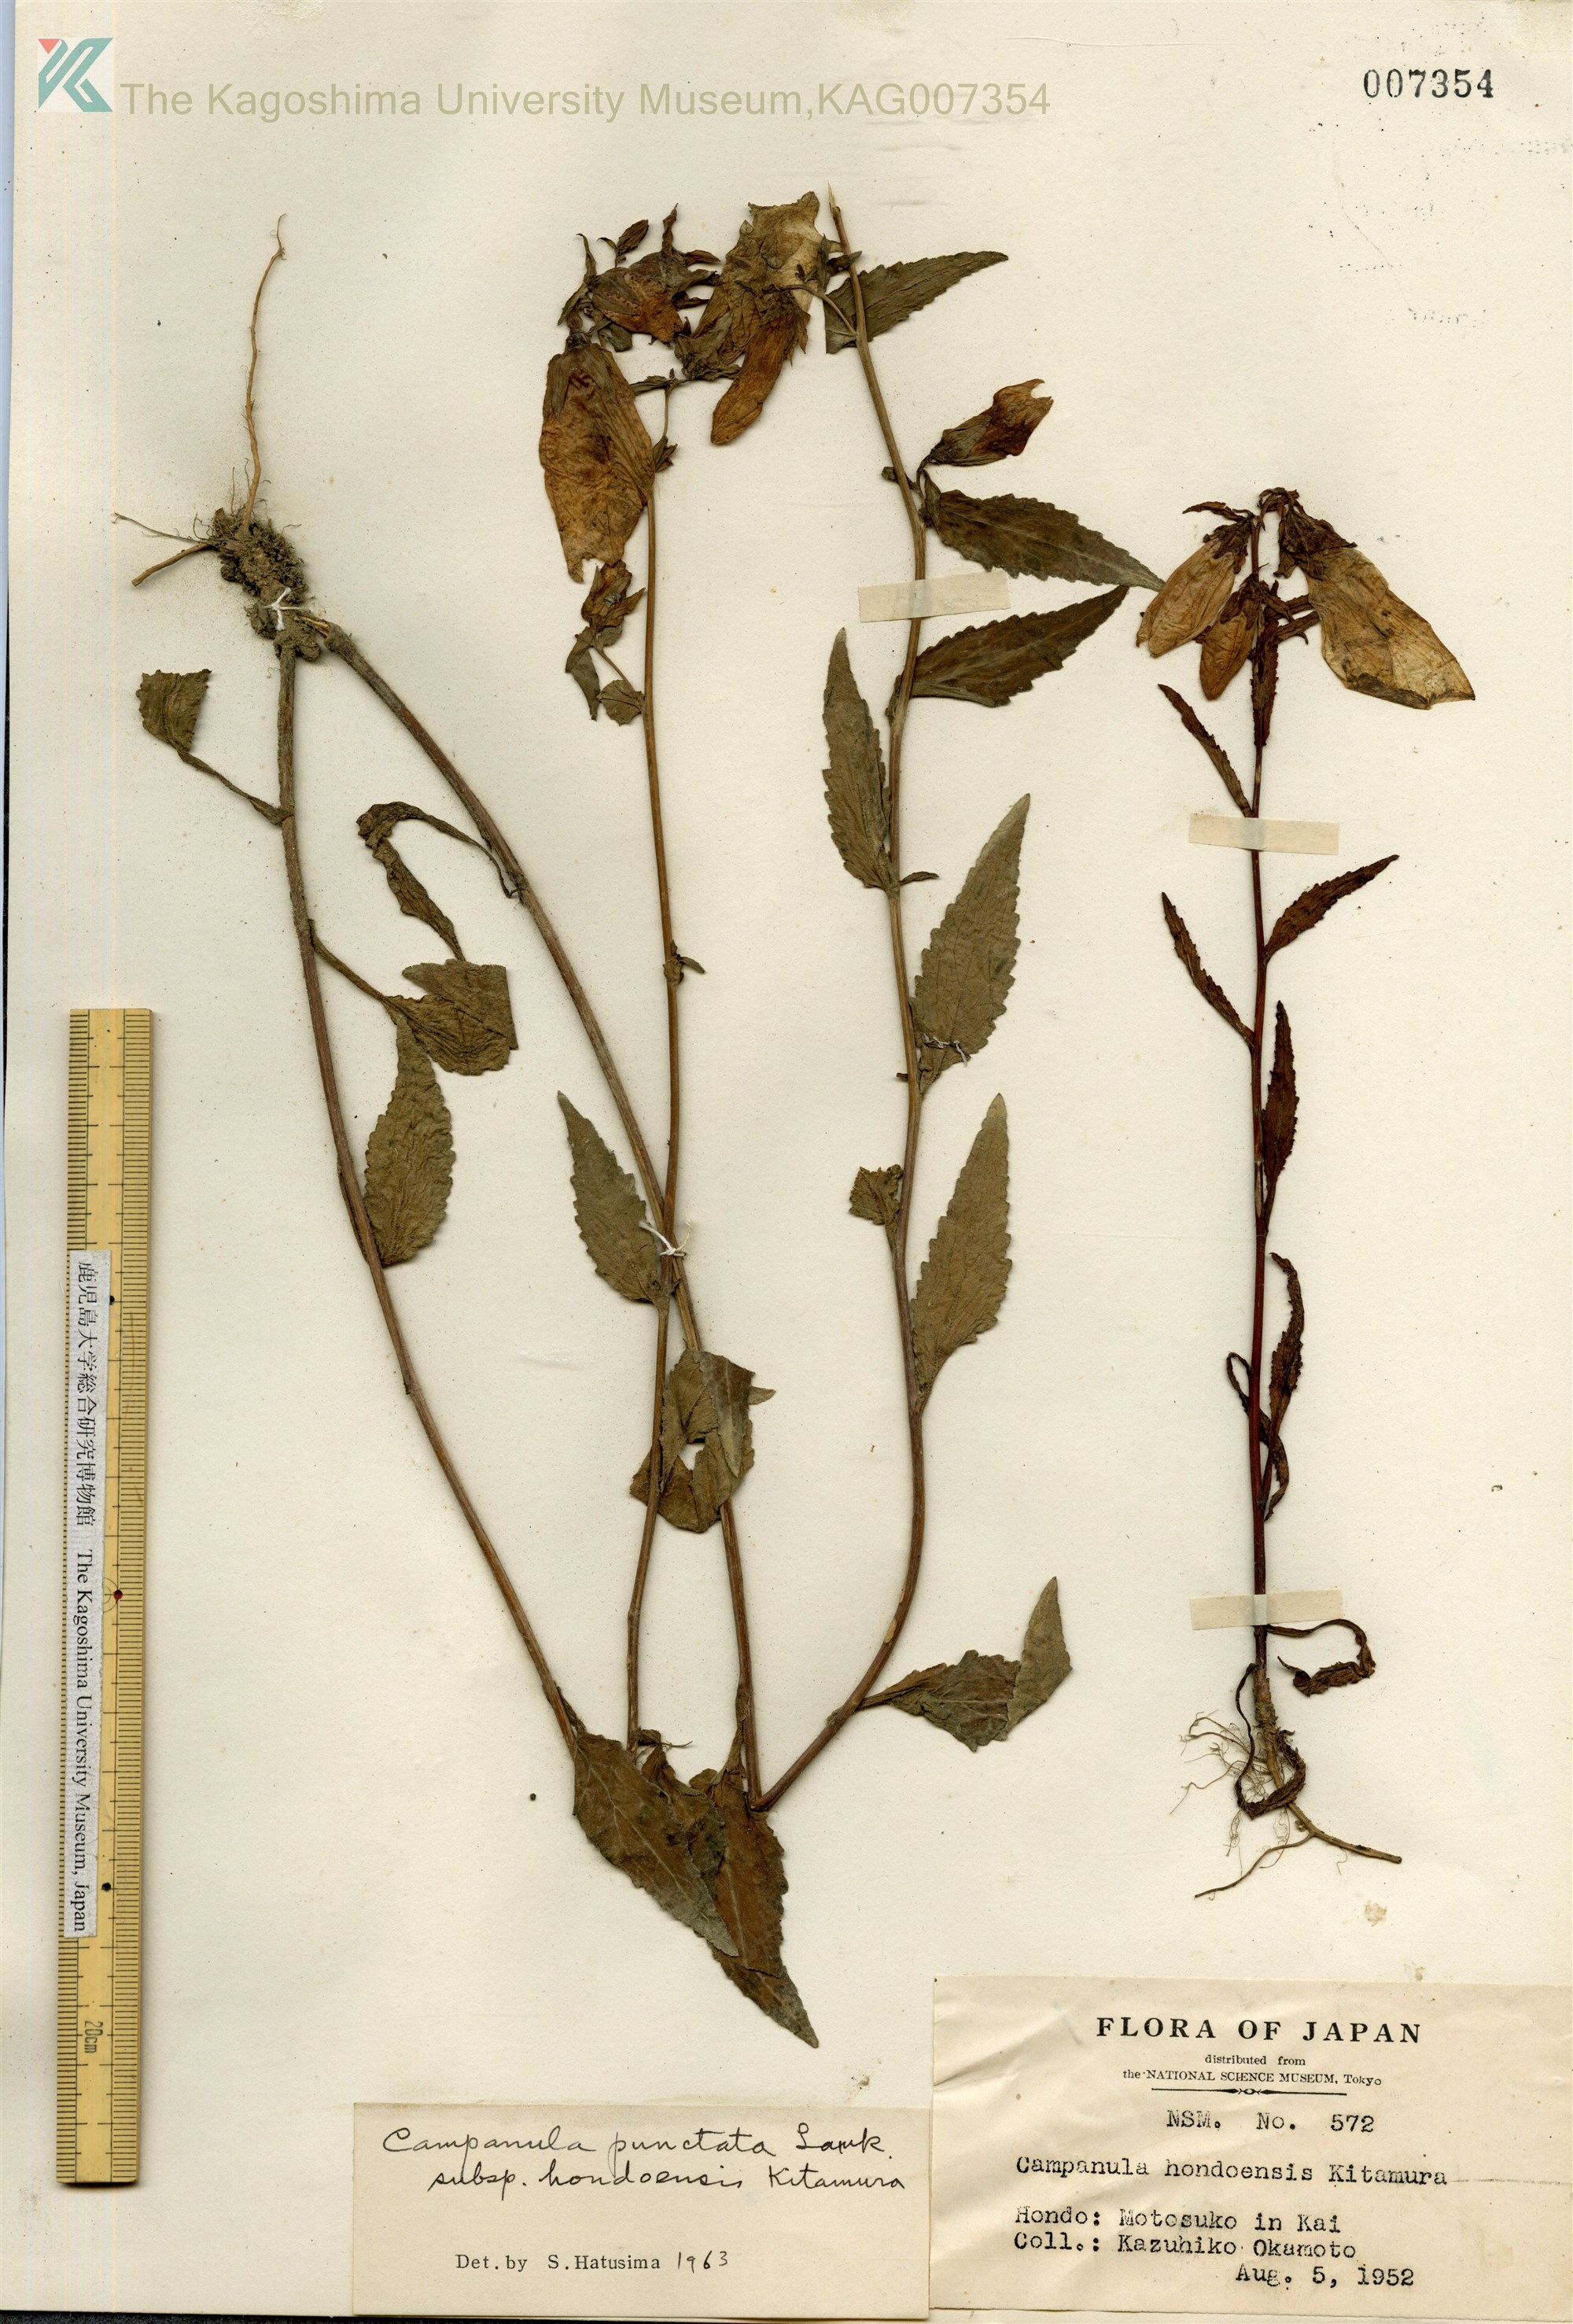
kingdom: Plantae
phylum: Tracheophyta
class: Magnoliopsida
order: Asterales
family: Campanulaceae
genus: Campanula
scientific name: Campanula punctata
